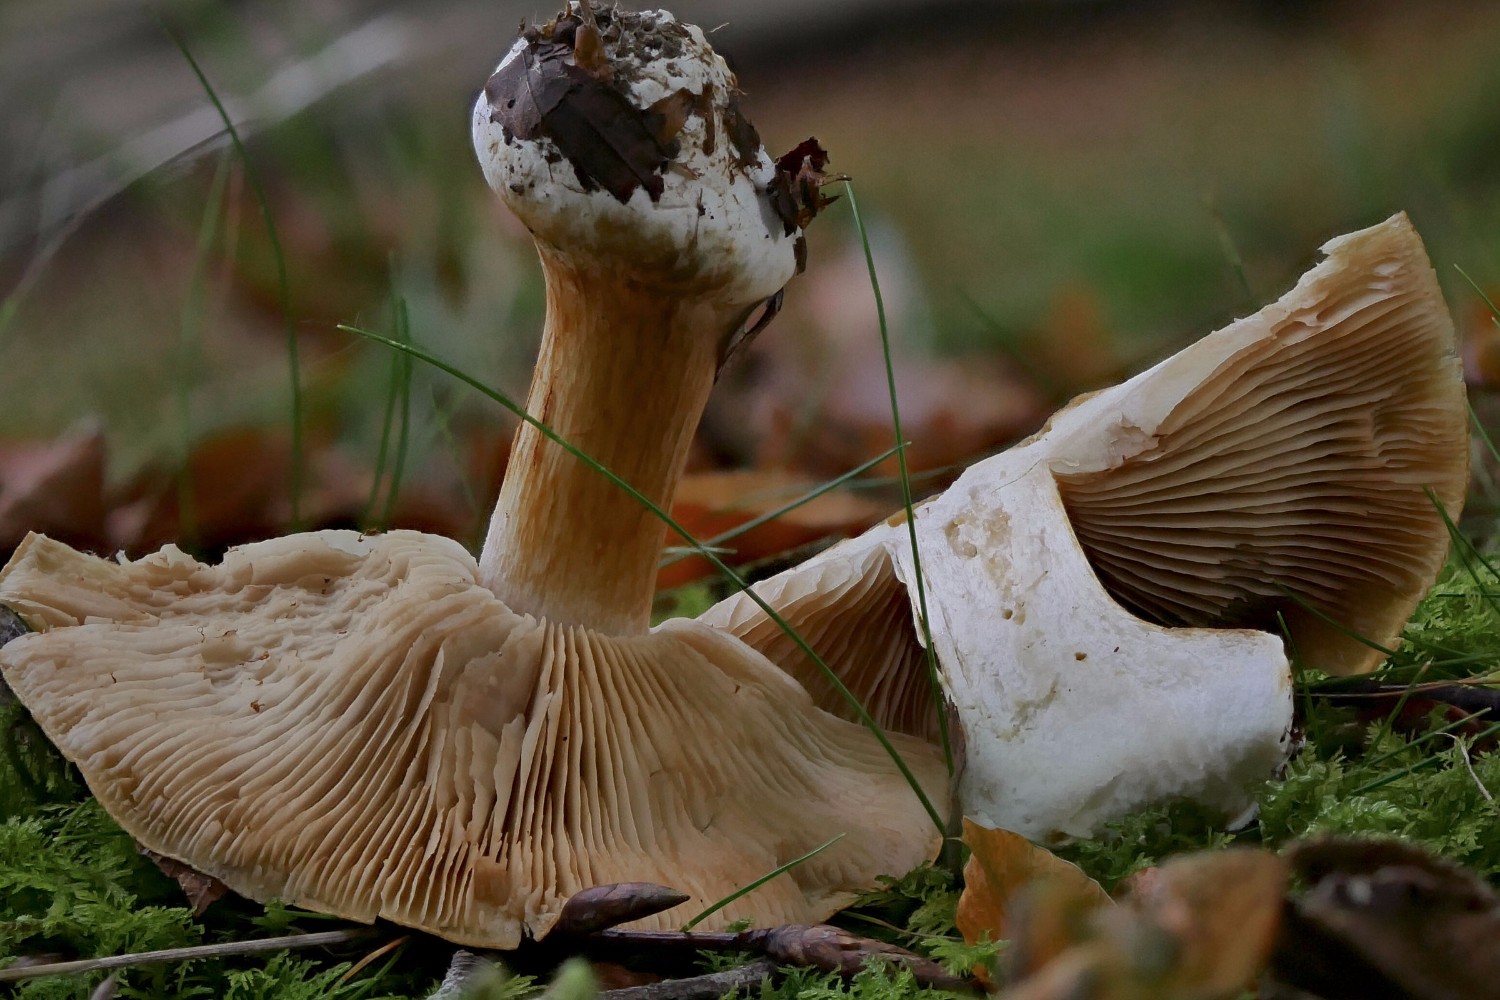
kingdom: Fungi
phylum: Basidiomycota
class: Agaricomycetes
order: Agaricales
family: Cortinariaceae
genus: Thaxterogaster
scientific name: Thaxterogaster talus
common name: knogle-slørhat
